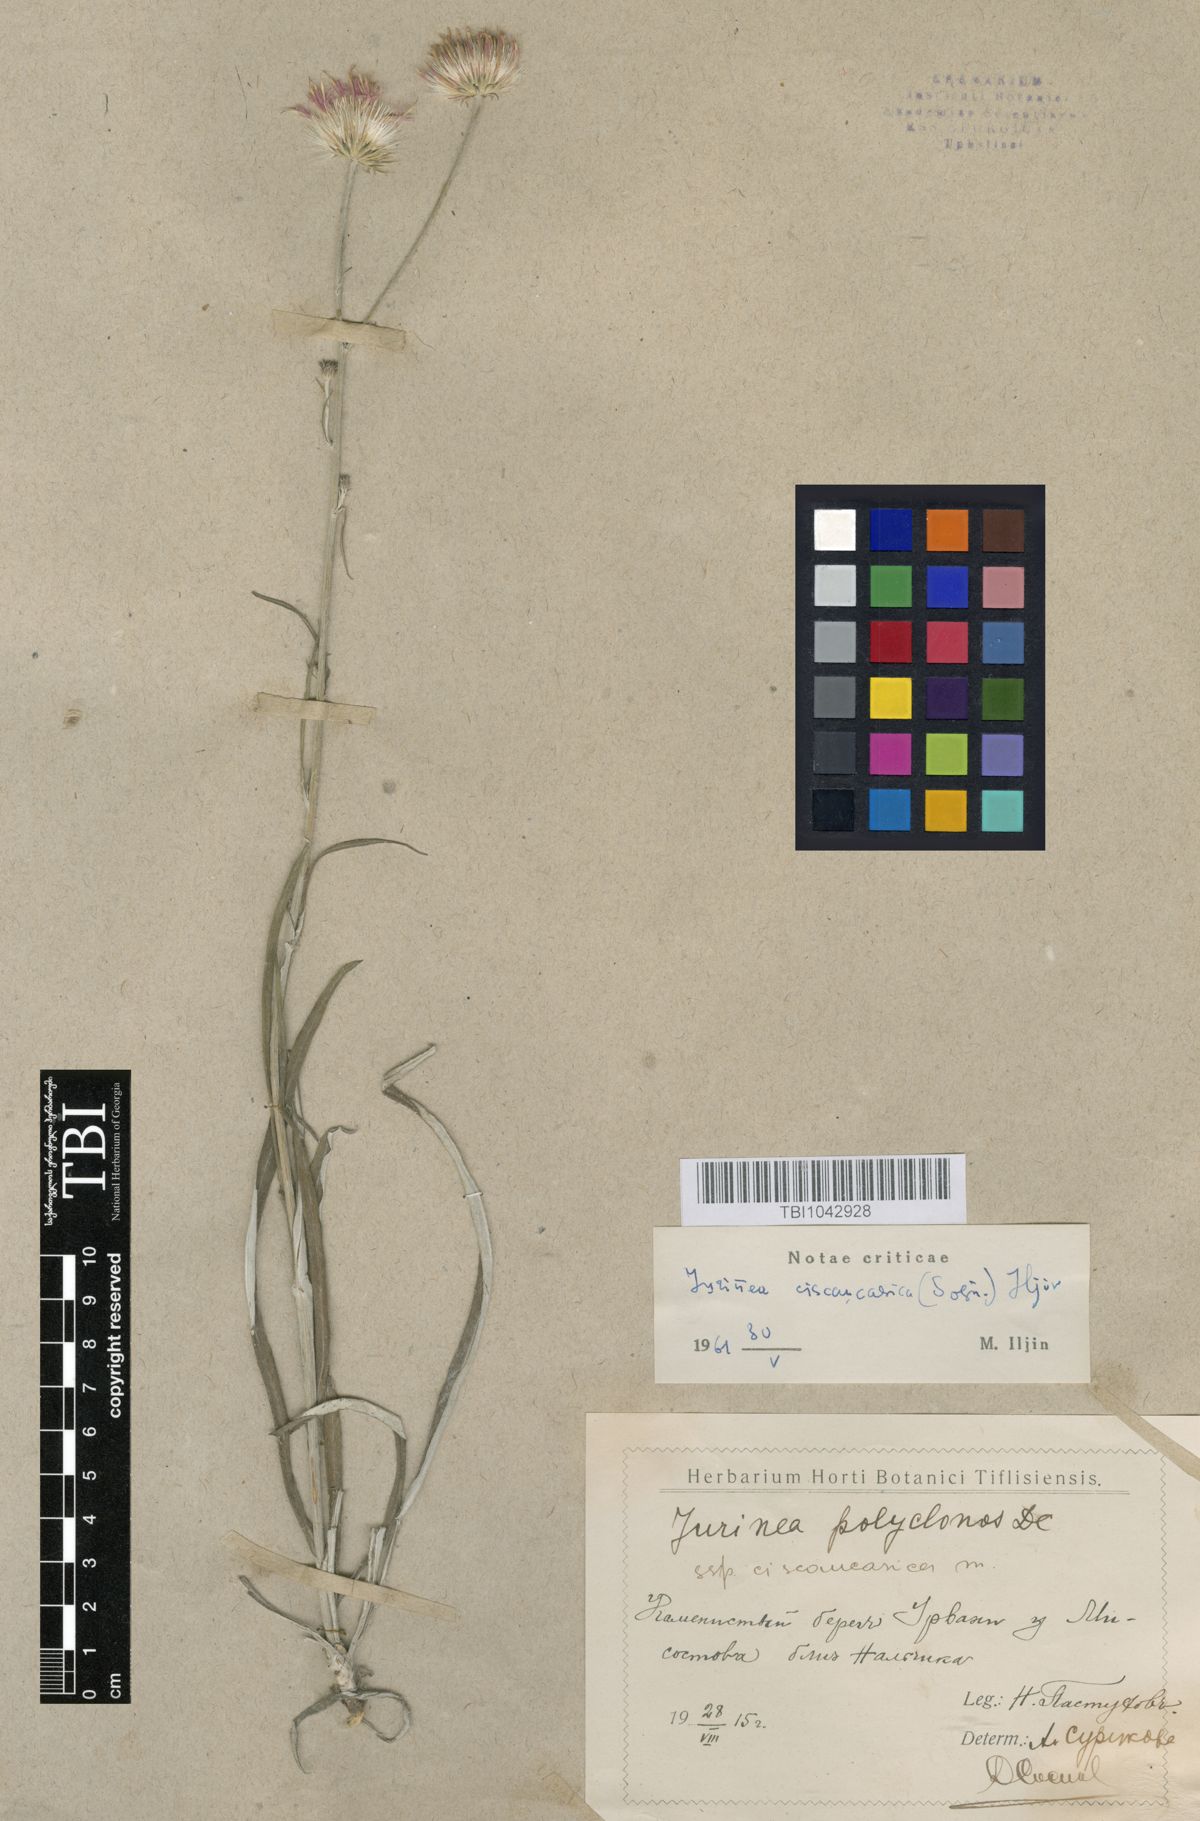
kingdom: Plantae
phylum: Tracheophyta
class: Magnoliopsida
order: Asterales
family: Asteraceae
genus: Jurinea
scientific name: Jurinea ciscaucasica
